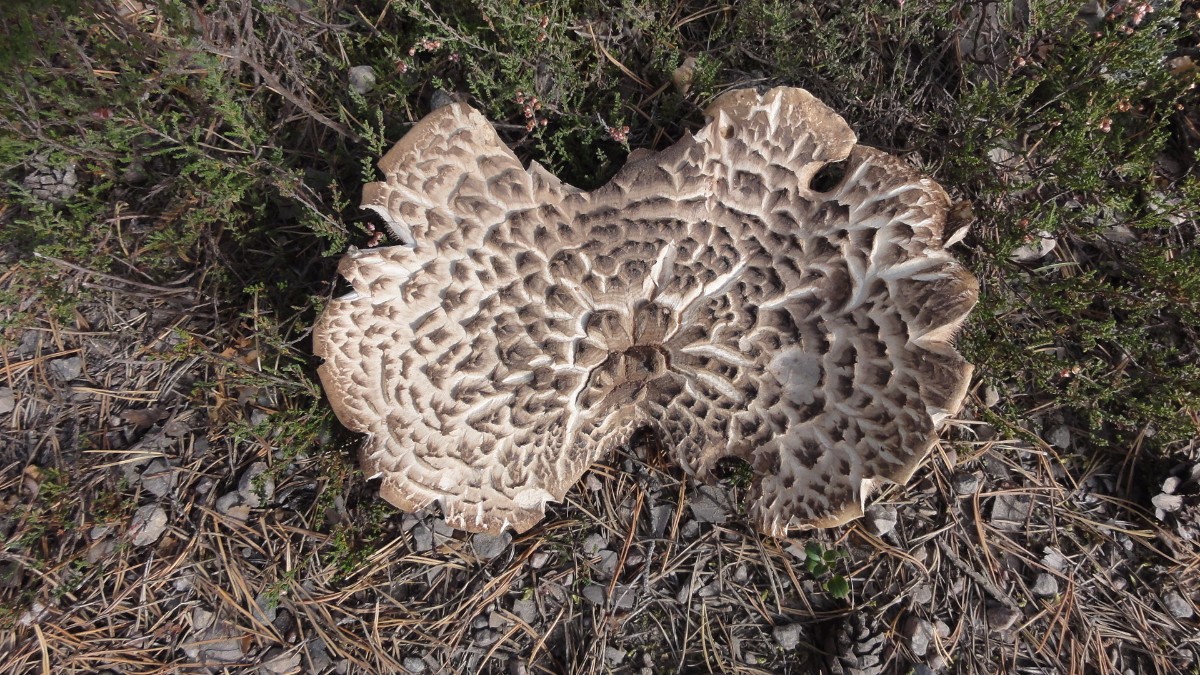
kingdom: Fungi
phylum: Basidiomycota
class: Agaricomycetes
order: Thelephorales
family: Bankeraceae
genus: Sarcodon
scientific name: Sarcodon imbricatus
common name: skællet kødpigsvamp
